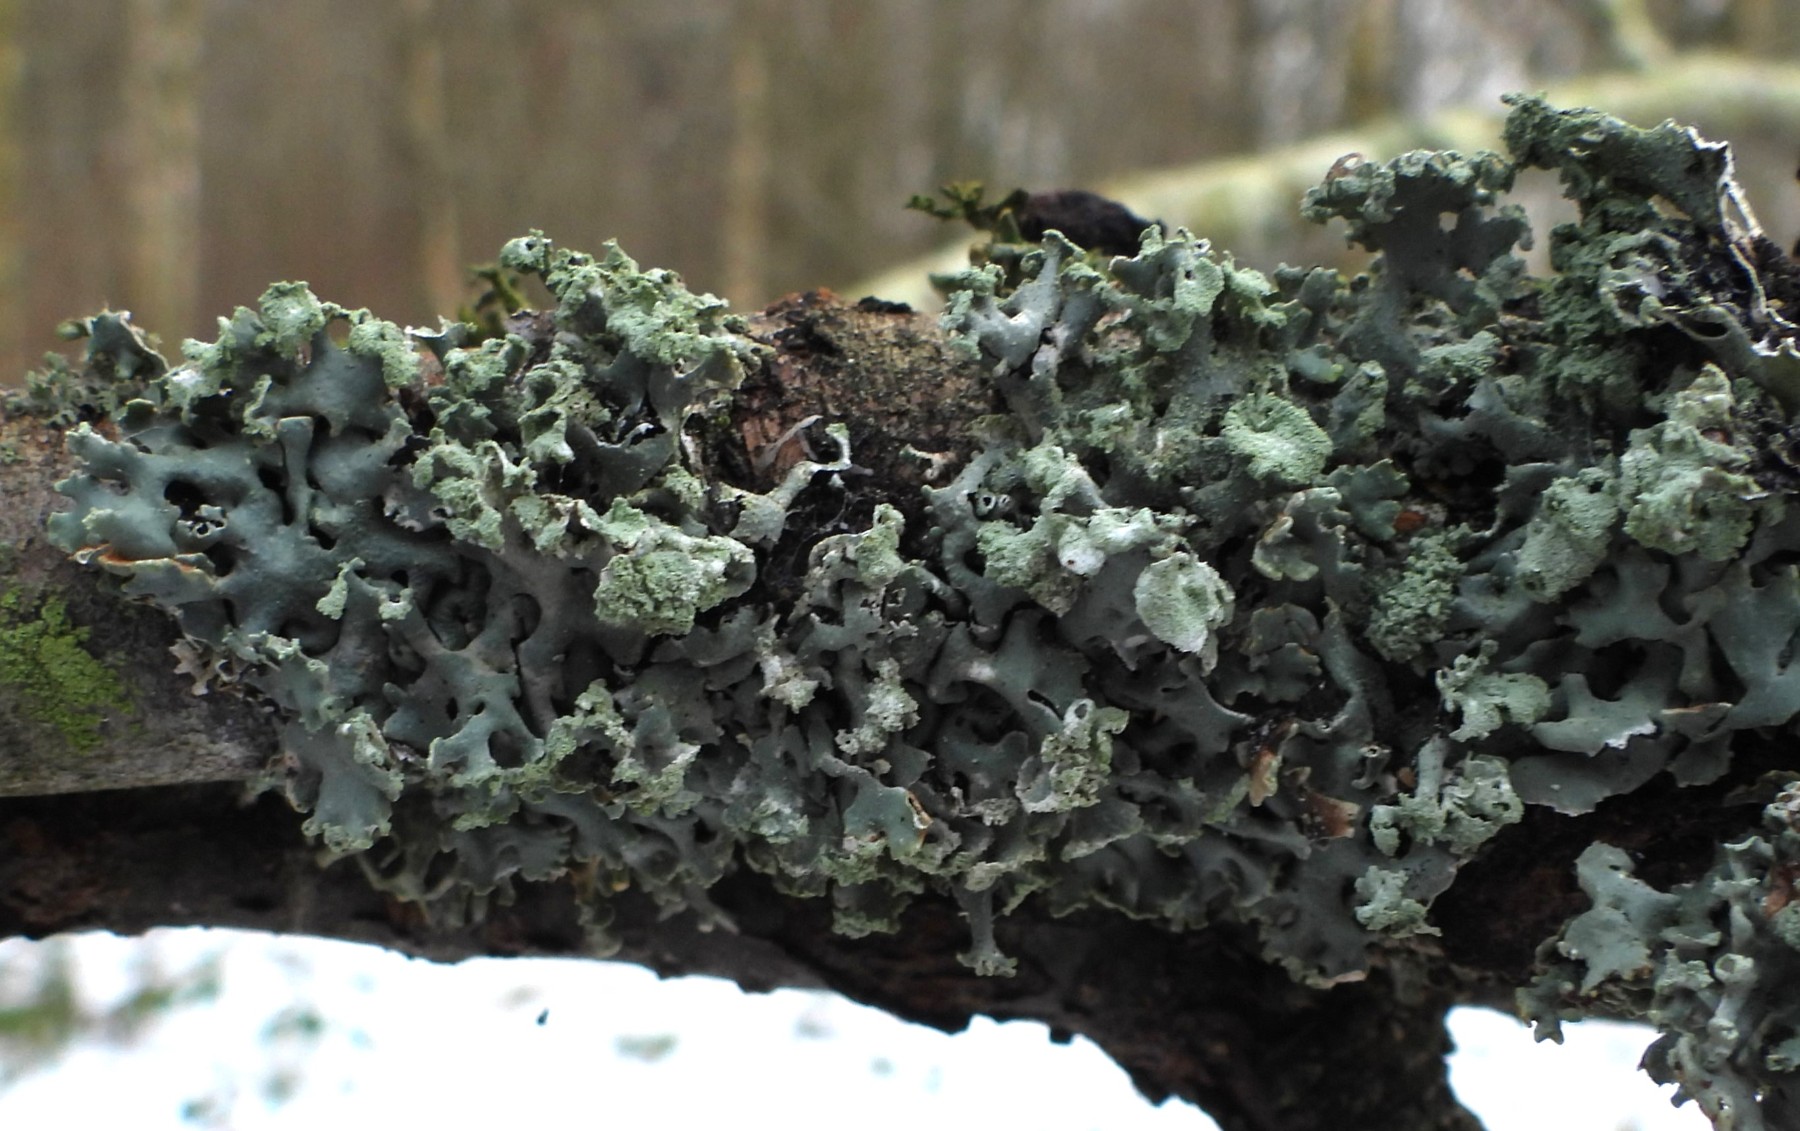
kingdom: Fungi
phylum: Ascomycota
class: Lecanoromycetes
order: Lecanorales
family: Parmeliaceae
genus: Hypogymnia
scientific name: Hypogymnia physodes
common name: almindelig kvistlav
